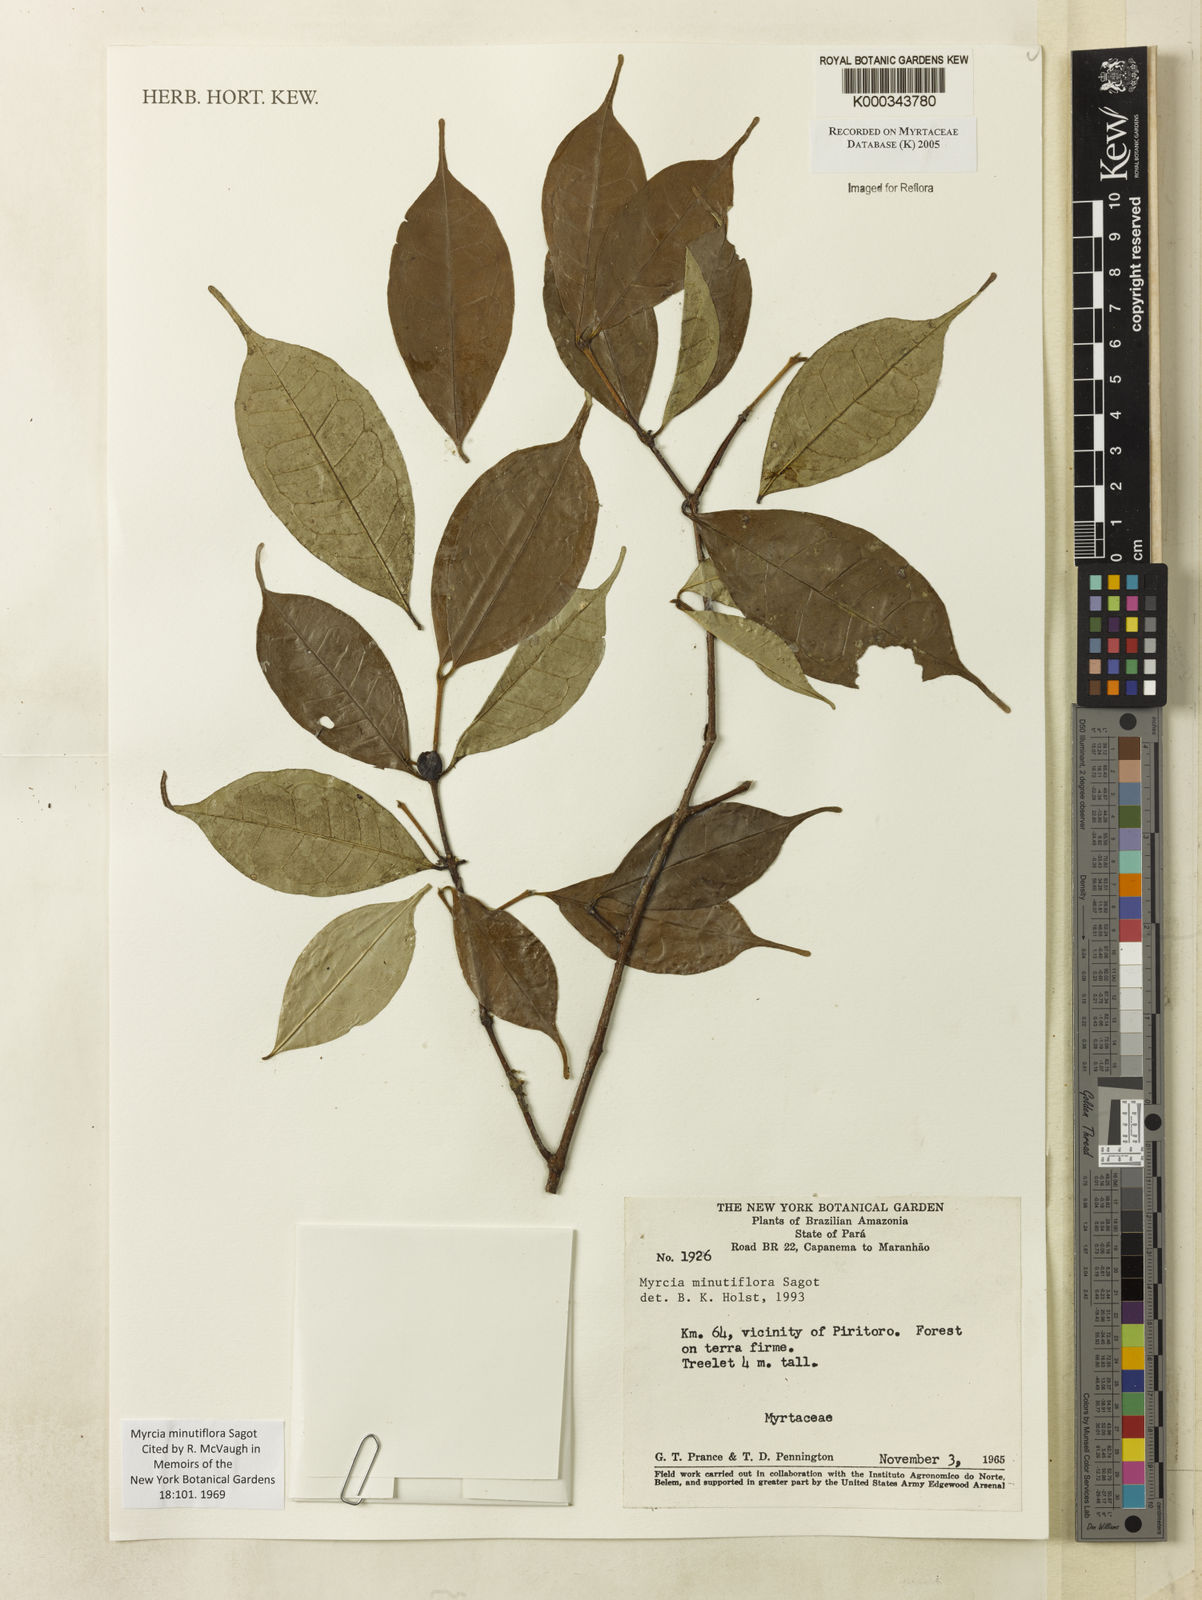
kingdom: Plantae
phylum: Tracheophyta
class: Magnoliopsida
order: Myrtales
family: Myrtaceae
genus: Myrcia
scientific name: Myrcia minutiflora
